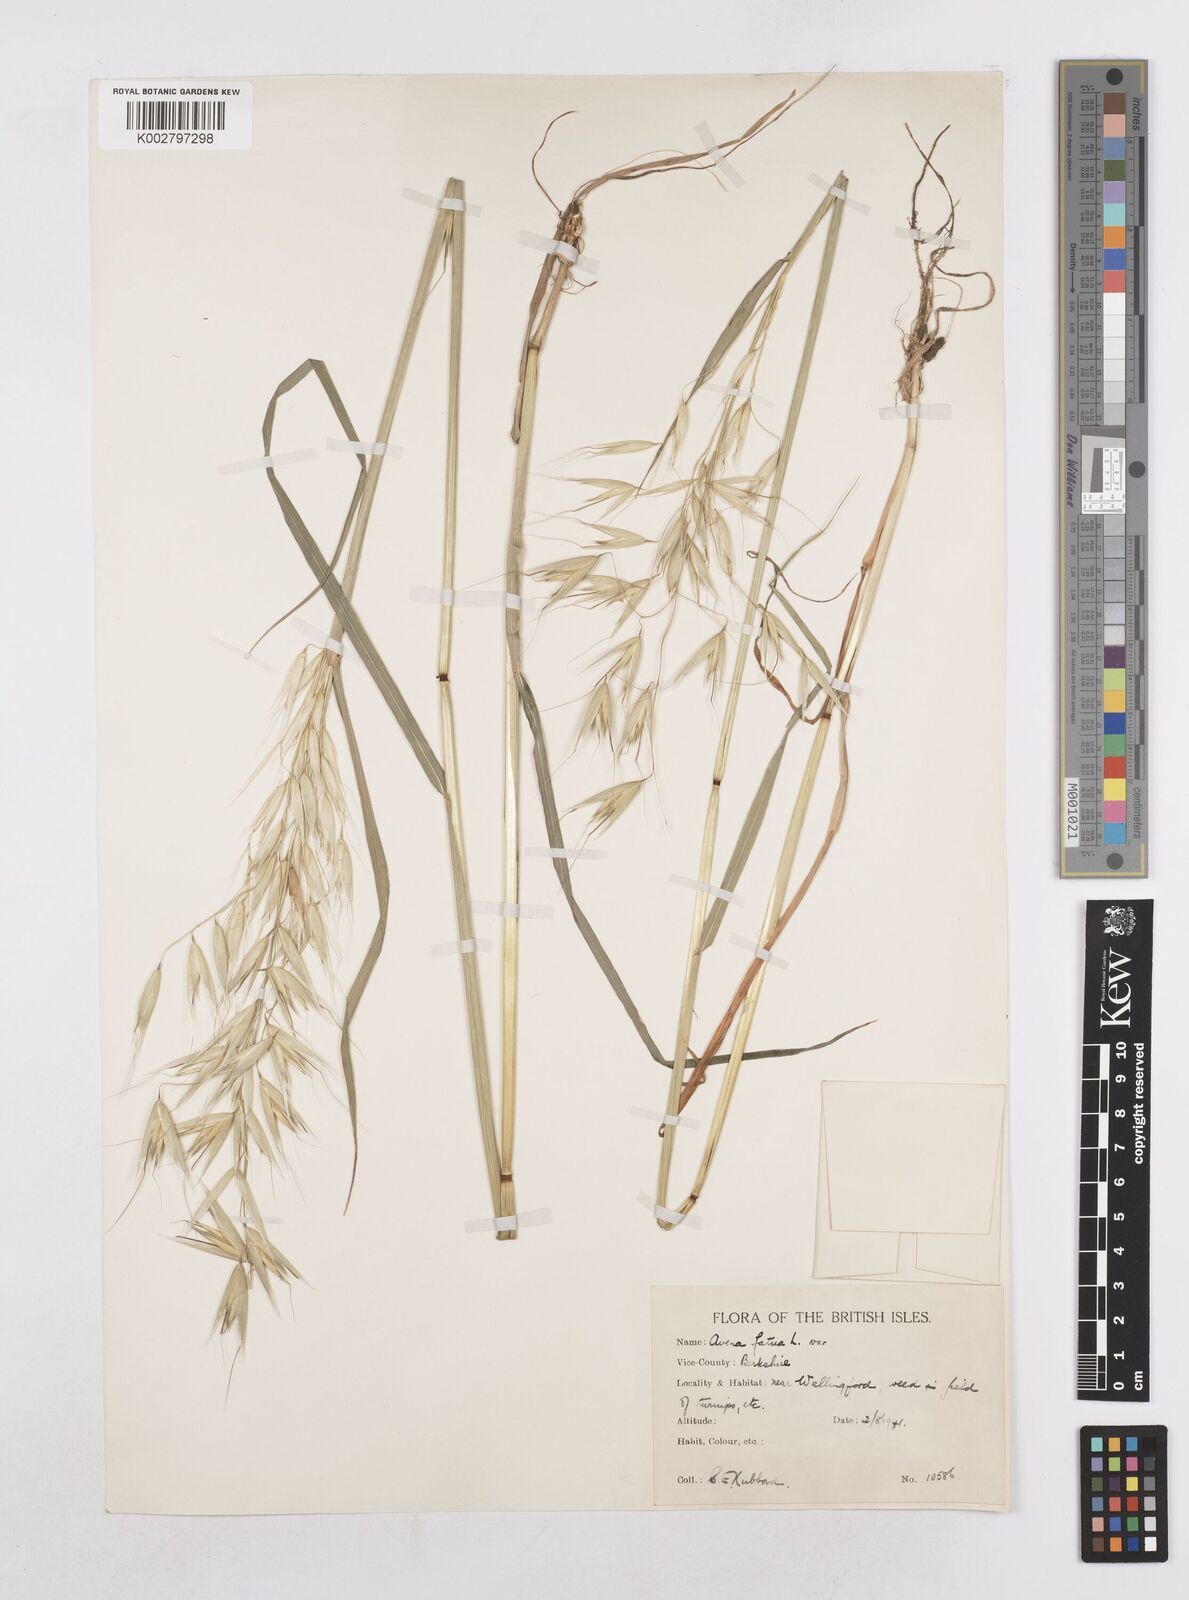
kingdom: Plantae
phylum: Tracheophyta
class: Liliopsida
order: Poales
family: Poaceae
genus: Avena
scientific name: Avena fatua
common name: Wild oat
